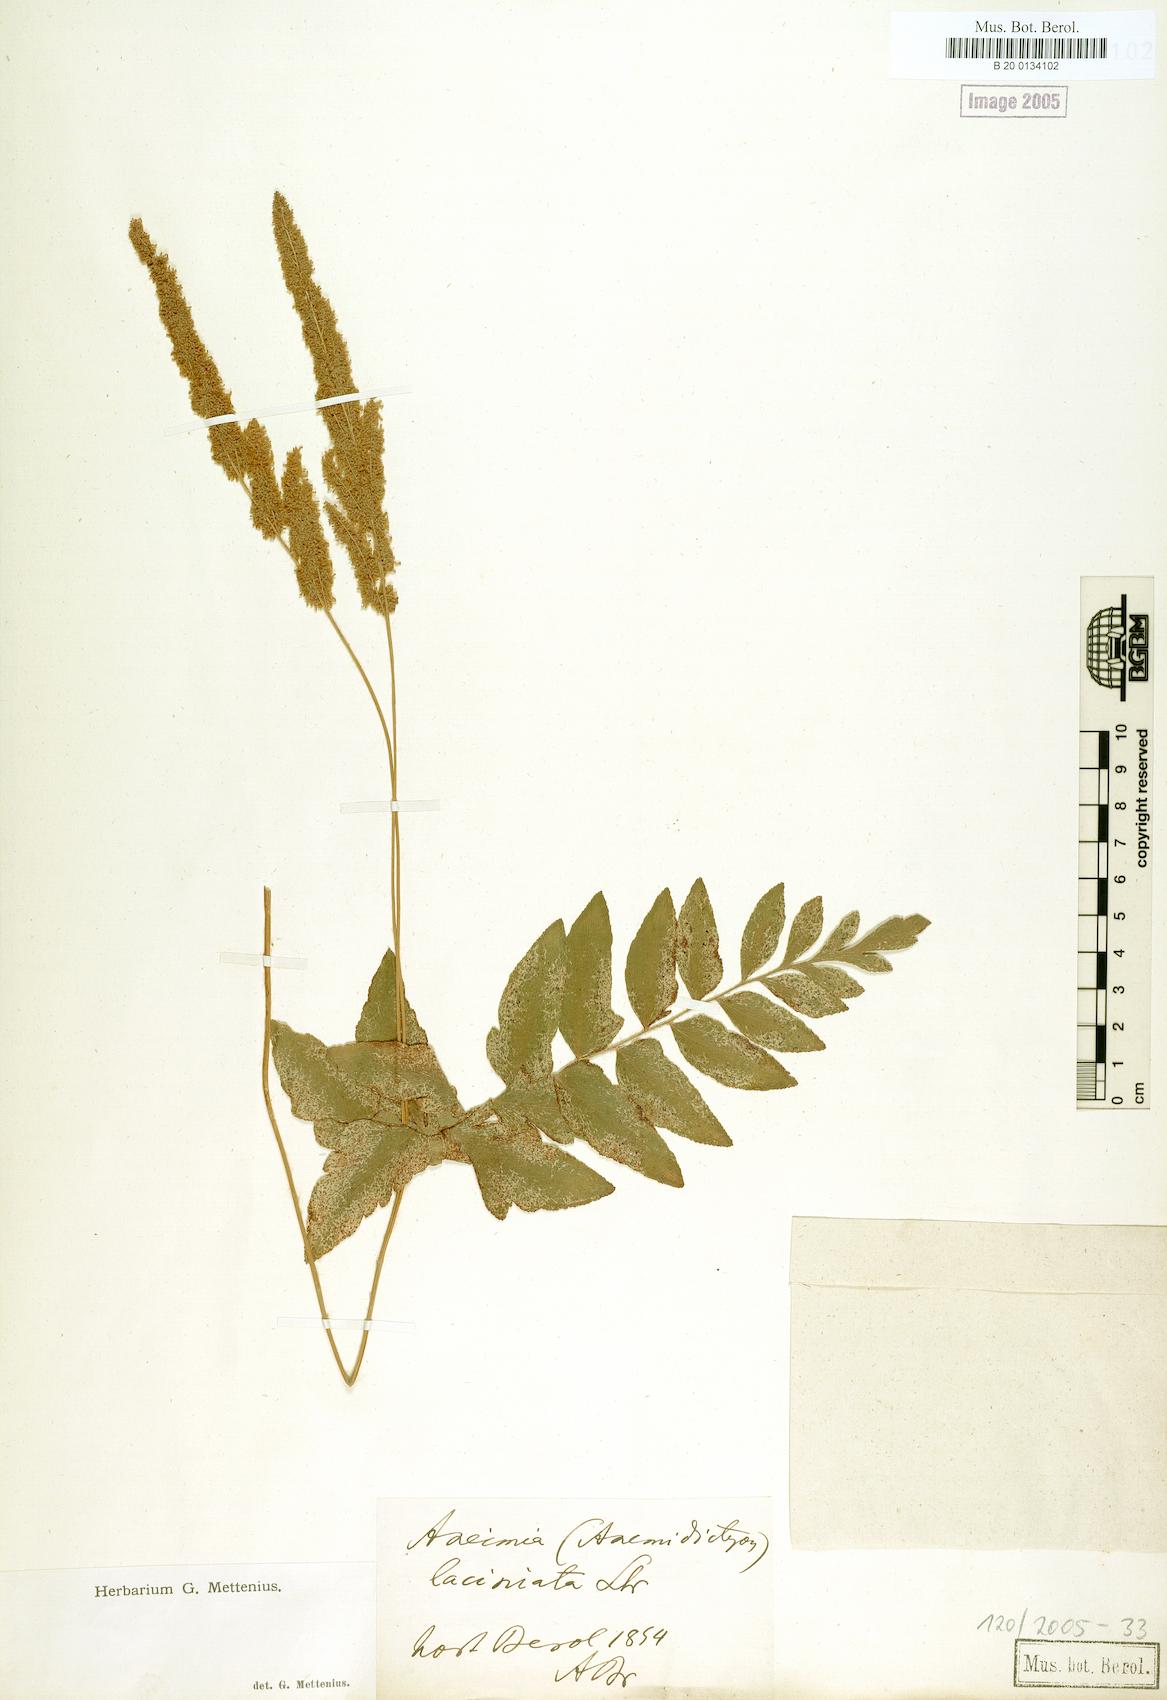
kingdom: Plantae
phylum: Tracheophyta
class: Polypodiopsida
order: Schizaeales
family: Anemiaceae
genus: Anemia
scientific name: Anemia hirta
